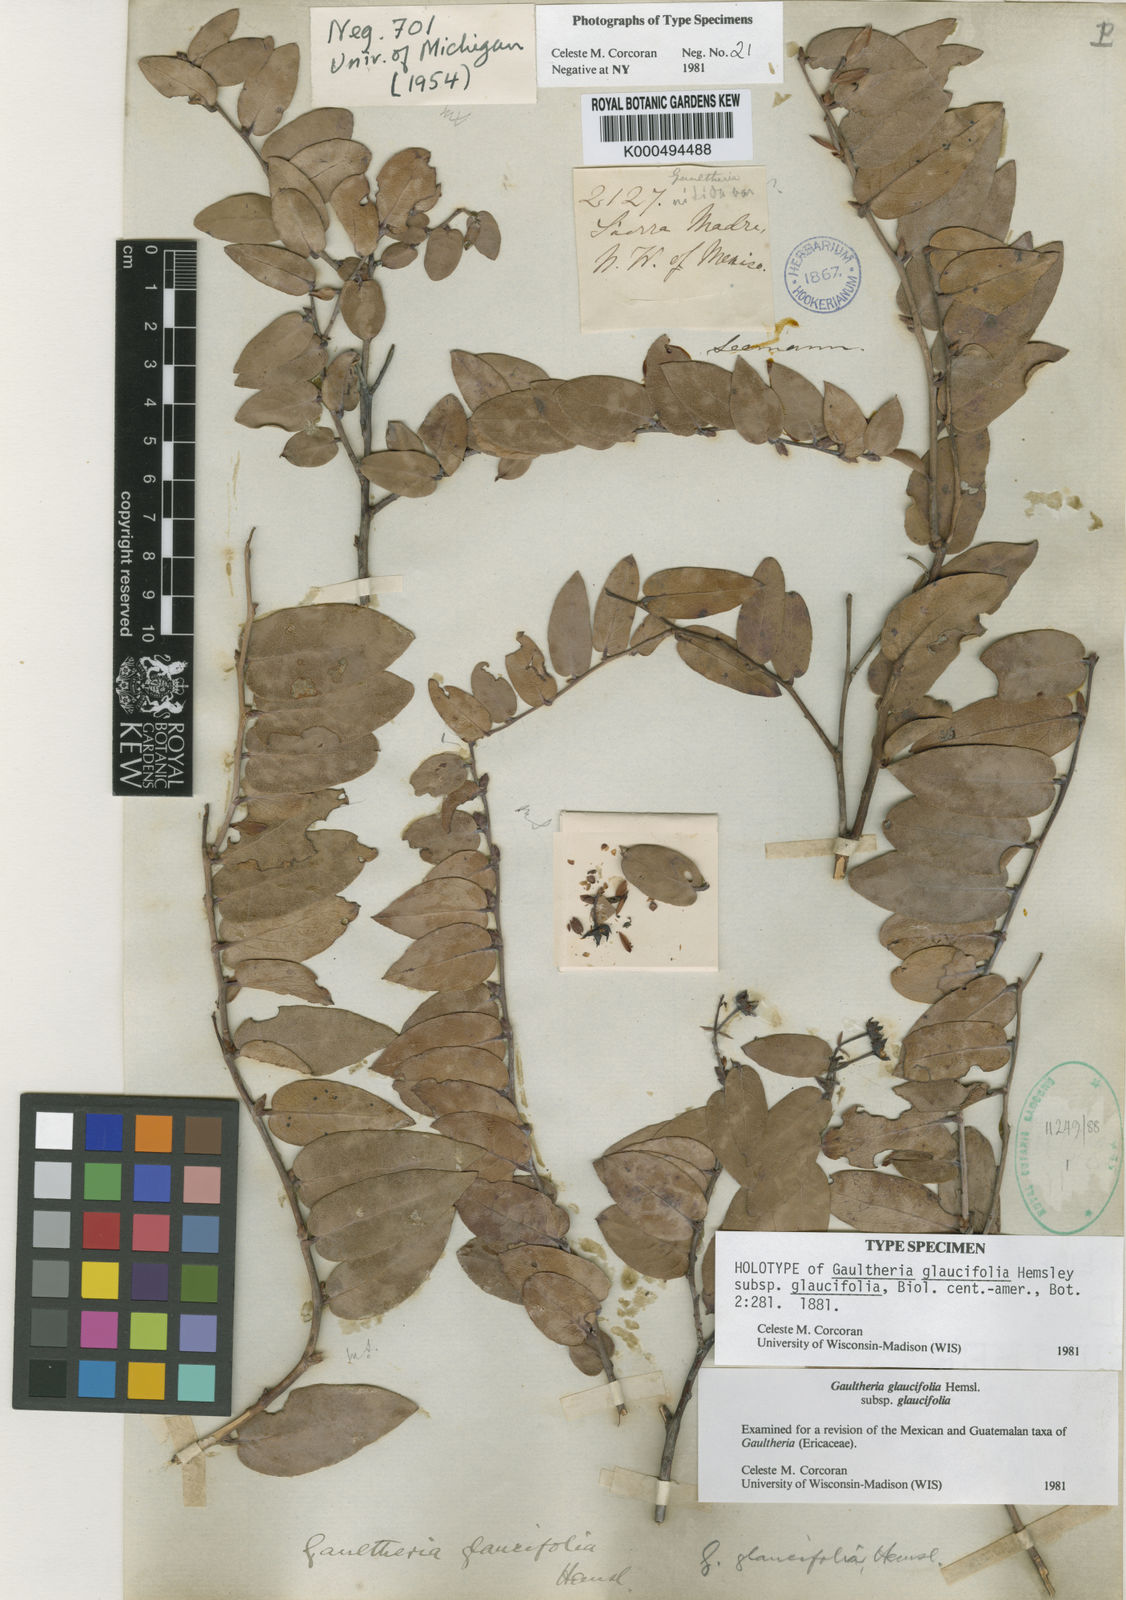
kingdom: Plantae
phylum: Tracheophyta
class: Magnoliopsida
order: Ericales
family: Ericaceae
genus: Gaultheria
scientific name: Gaultheria glaucifolia
